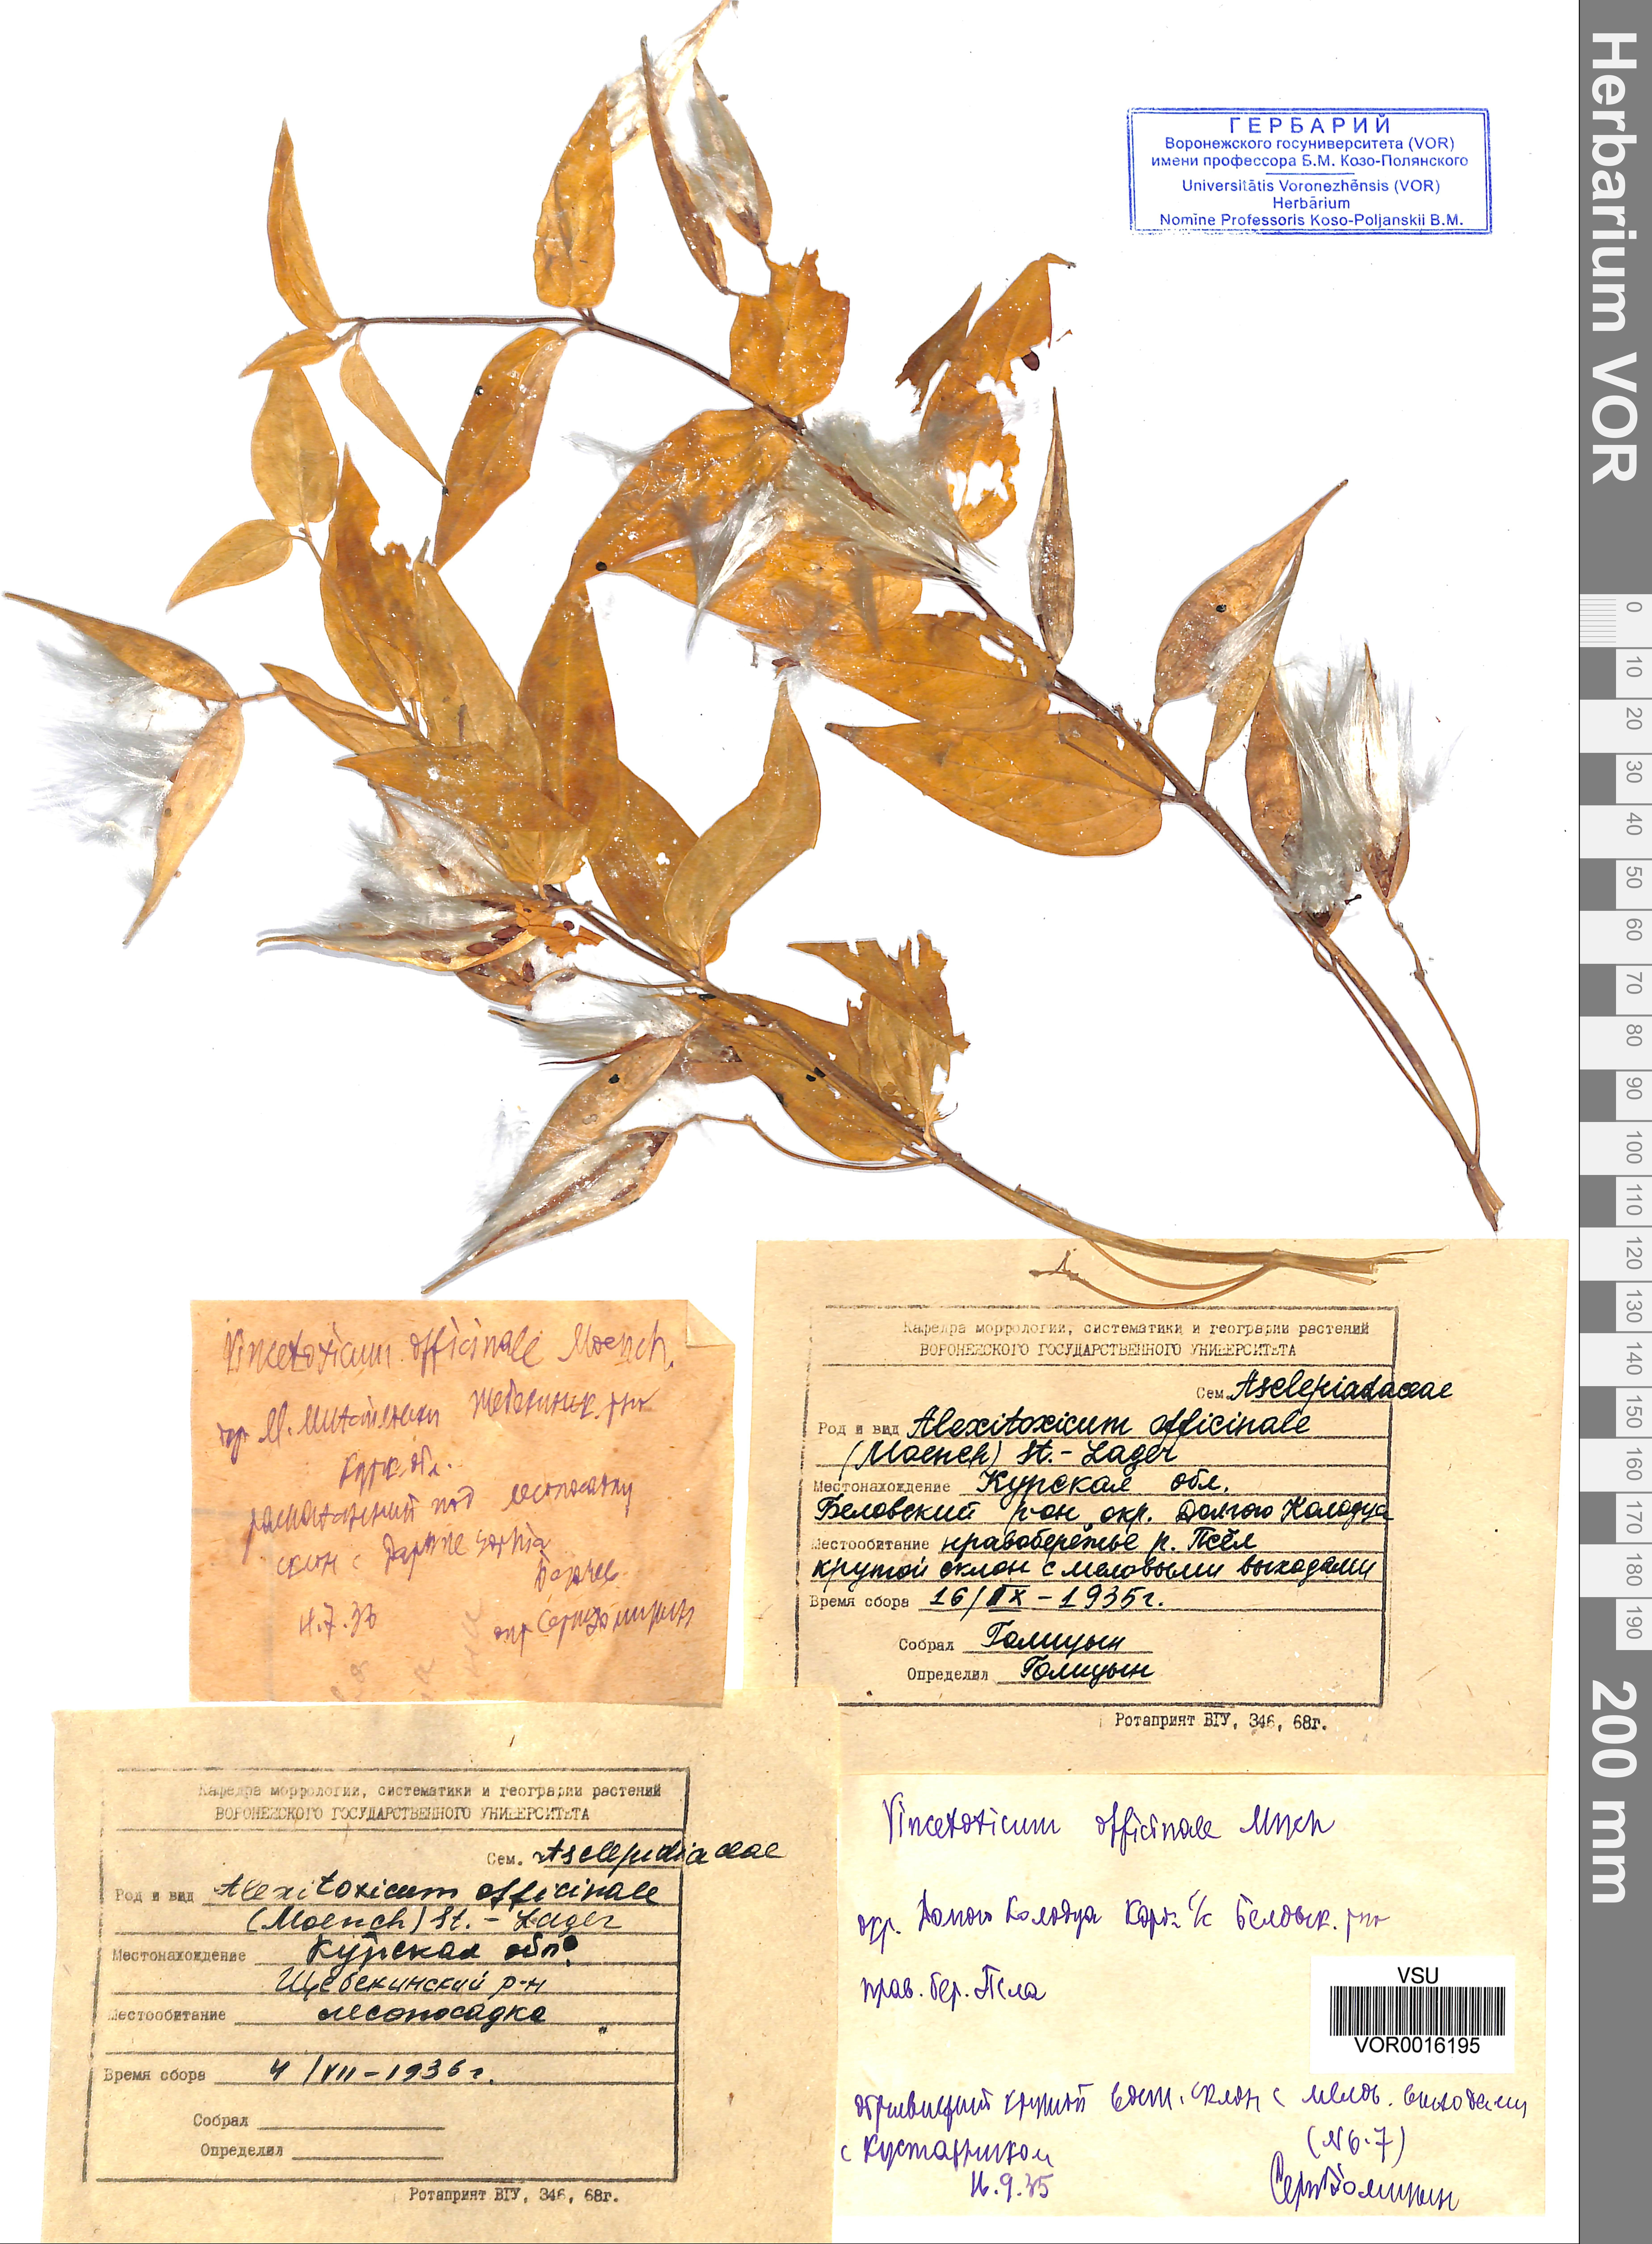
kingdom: Plantae
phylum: Tracheophyta
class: Magnoliopsida
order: Gentianales
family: Apocynaceae
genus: Vincetoxicum
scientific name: Vincetoxicum hirundinaria
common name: White swallowwort
